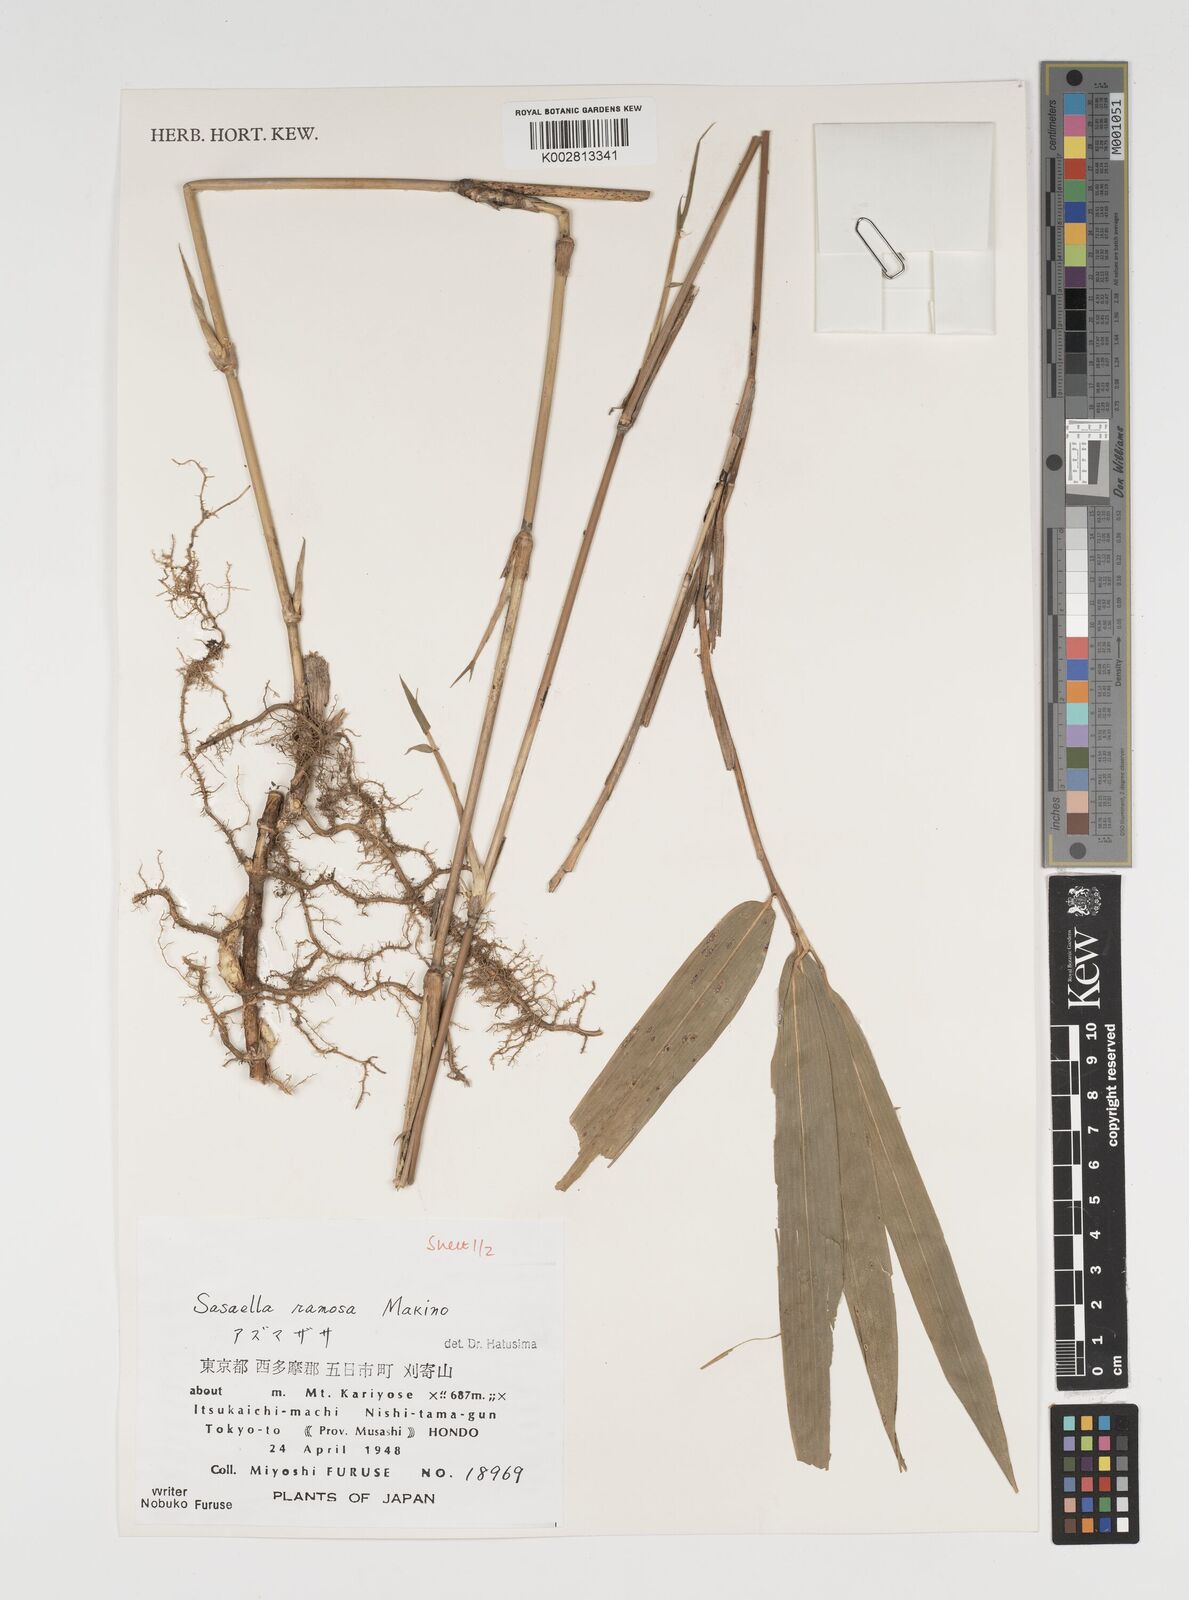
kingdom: Plantae
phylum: Tracheophyta
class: Liliopsida
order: Poales
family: Poaceae
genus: Sasaella
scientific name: Sasaella ramosa
